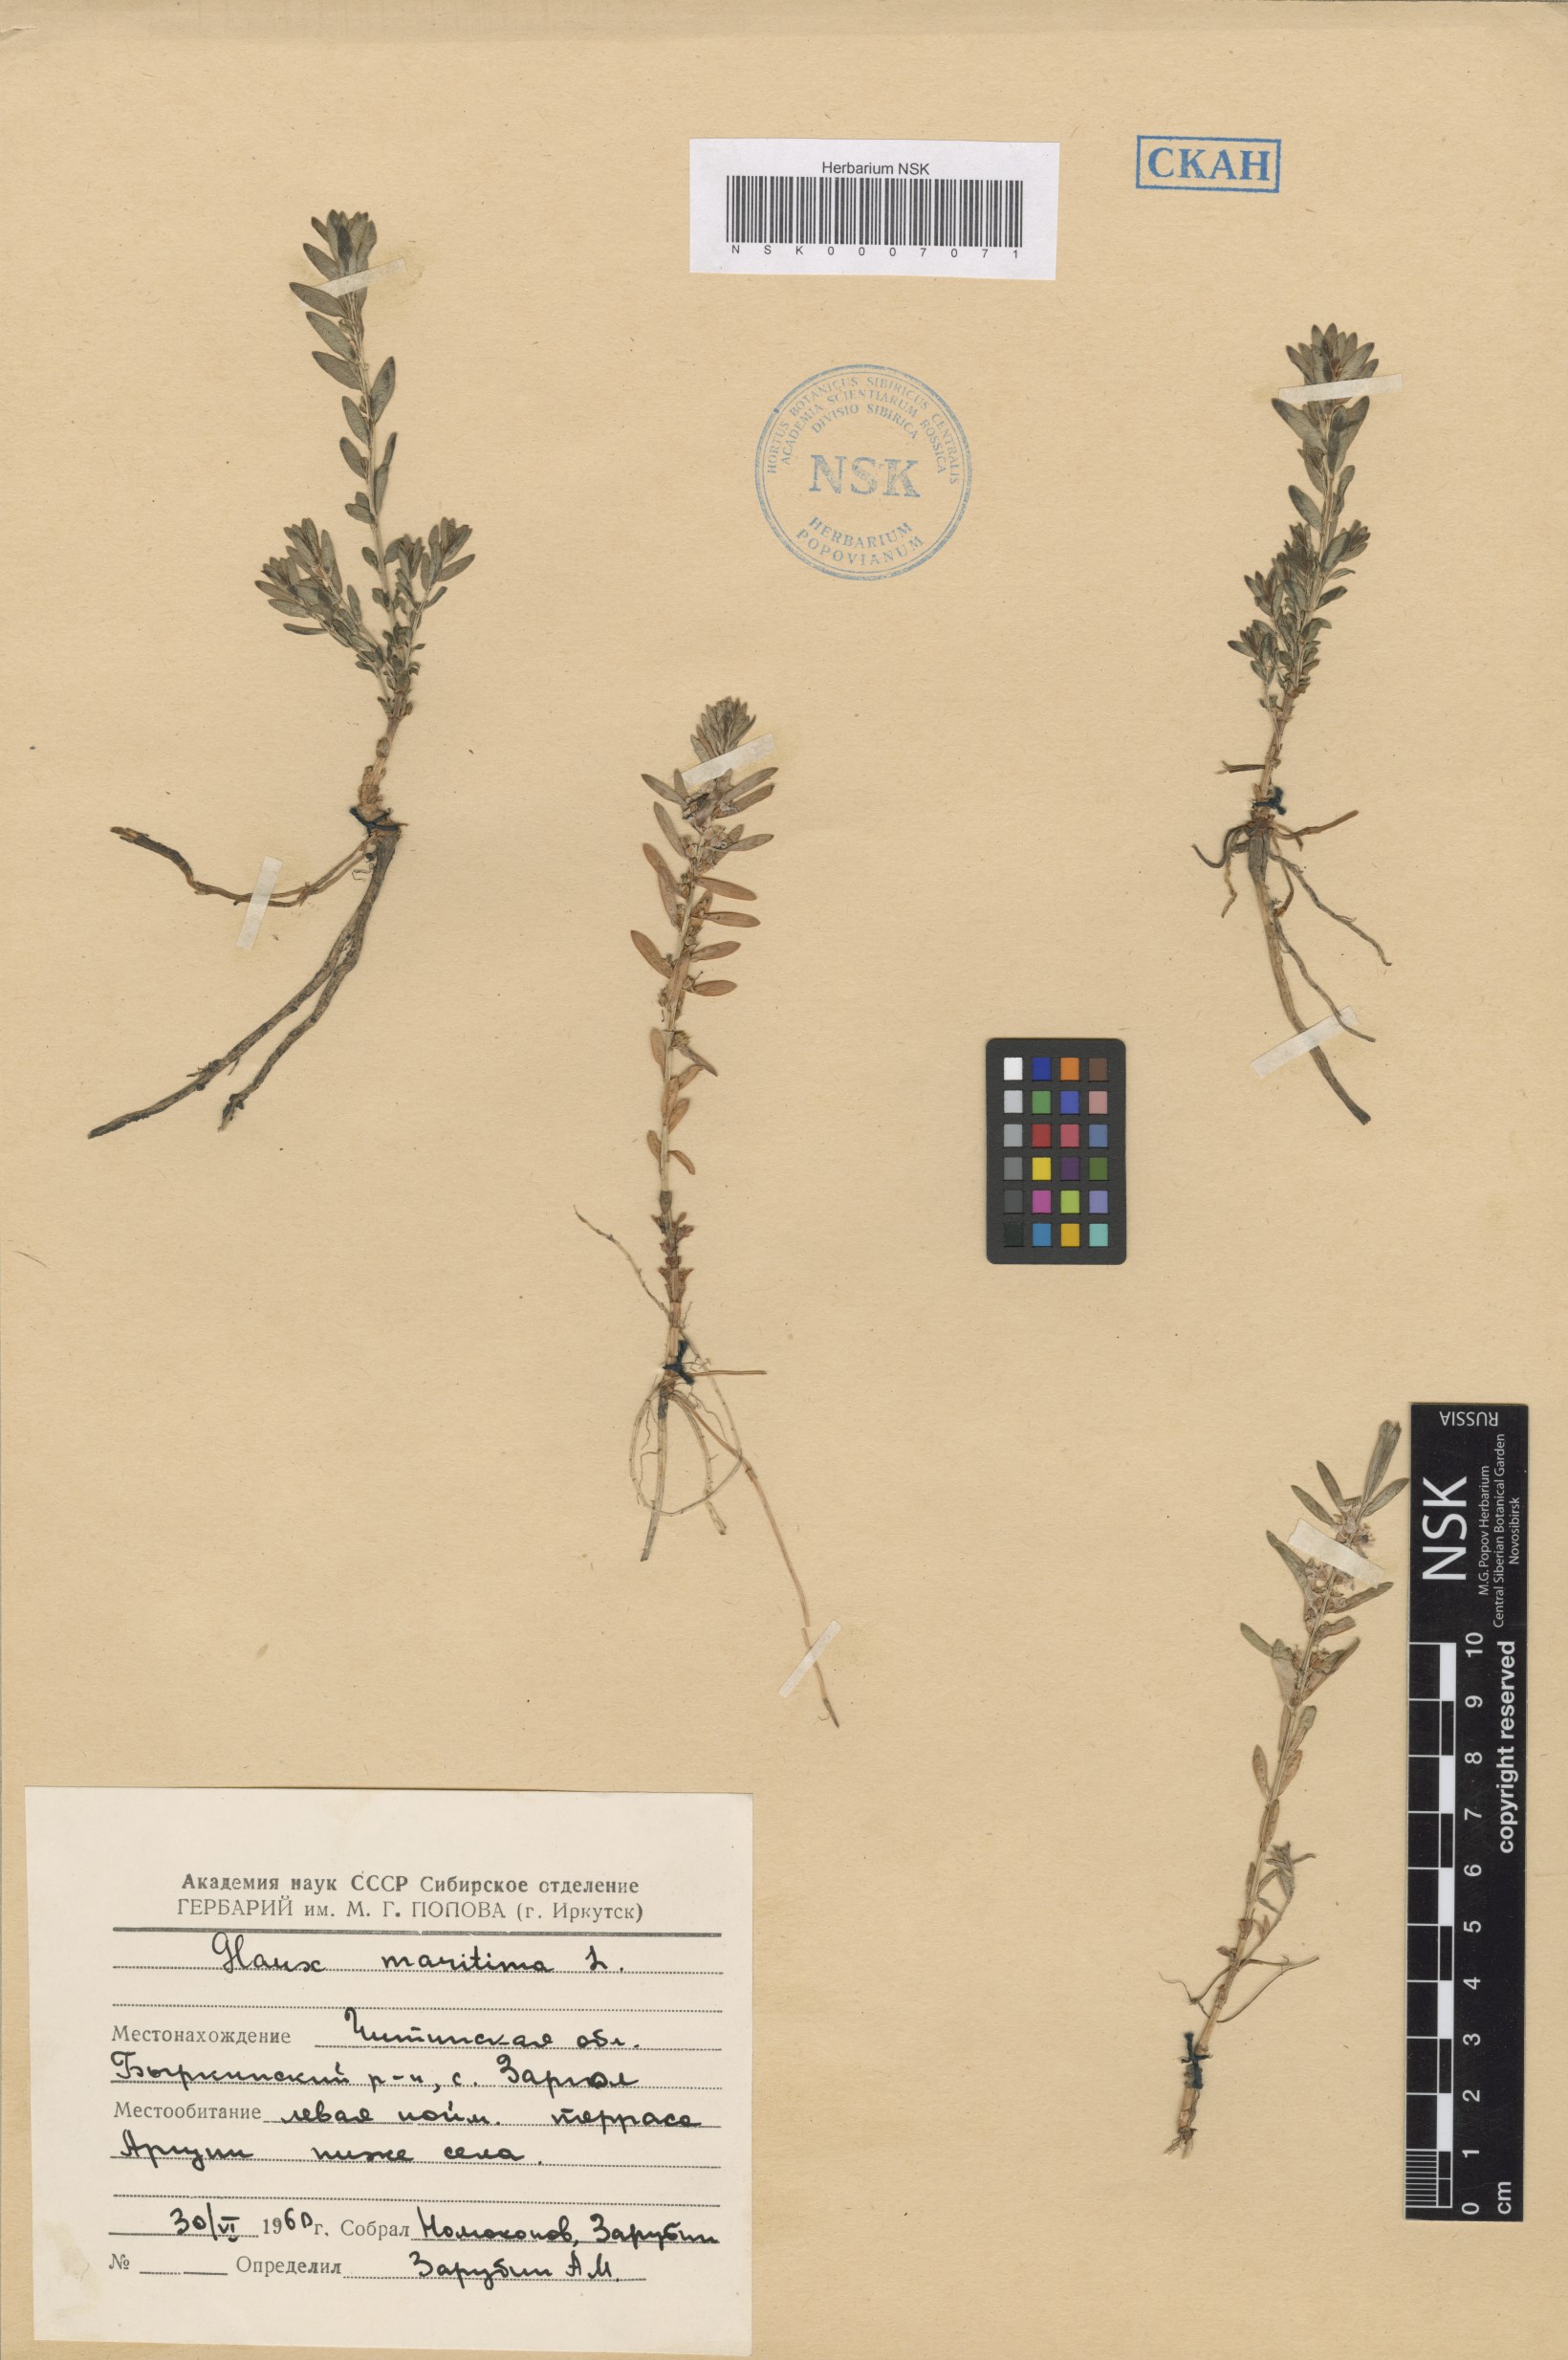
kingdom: Plantae
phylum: Tracheophyta
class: Magnoliopsida
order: Ericales
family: Primulaceae
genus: Lysimachia
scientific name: Lysimachia maritima
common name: Sea milkwort
